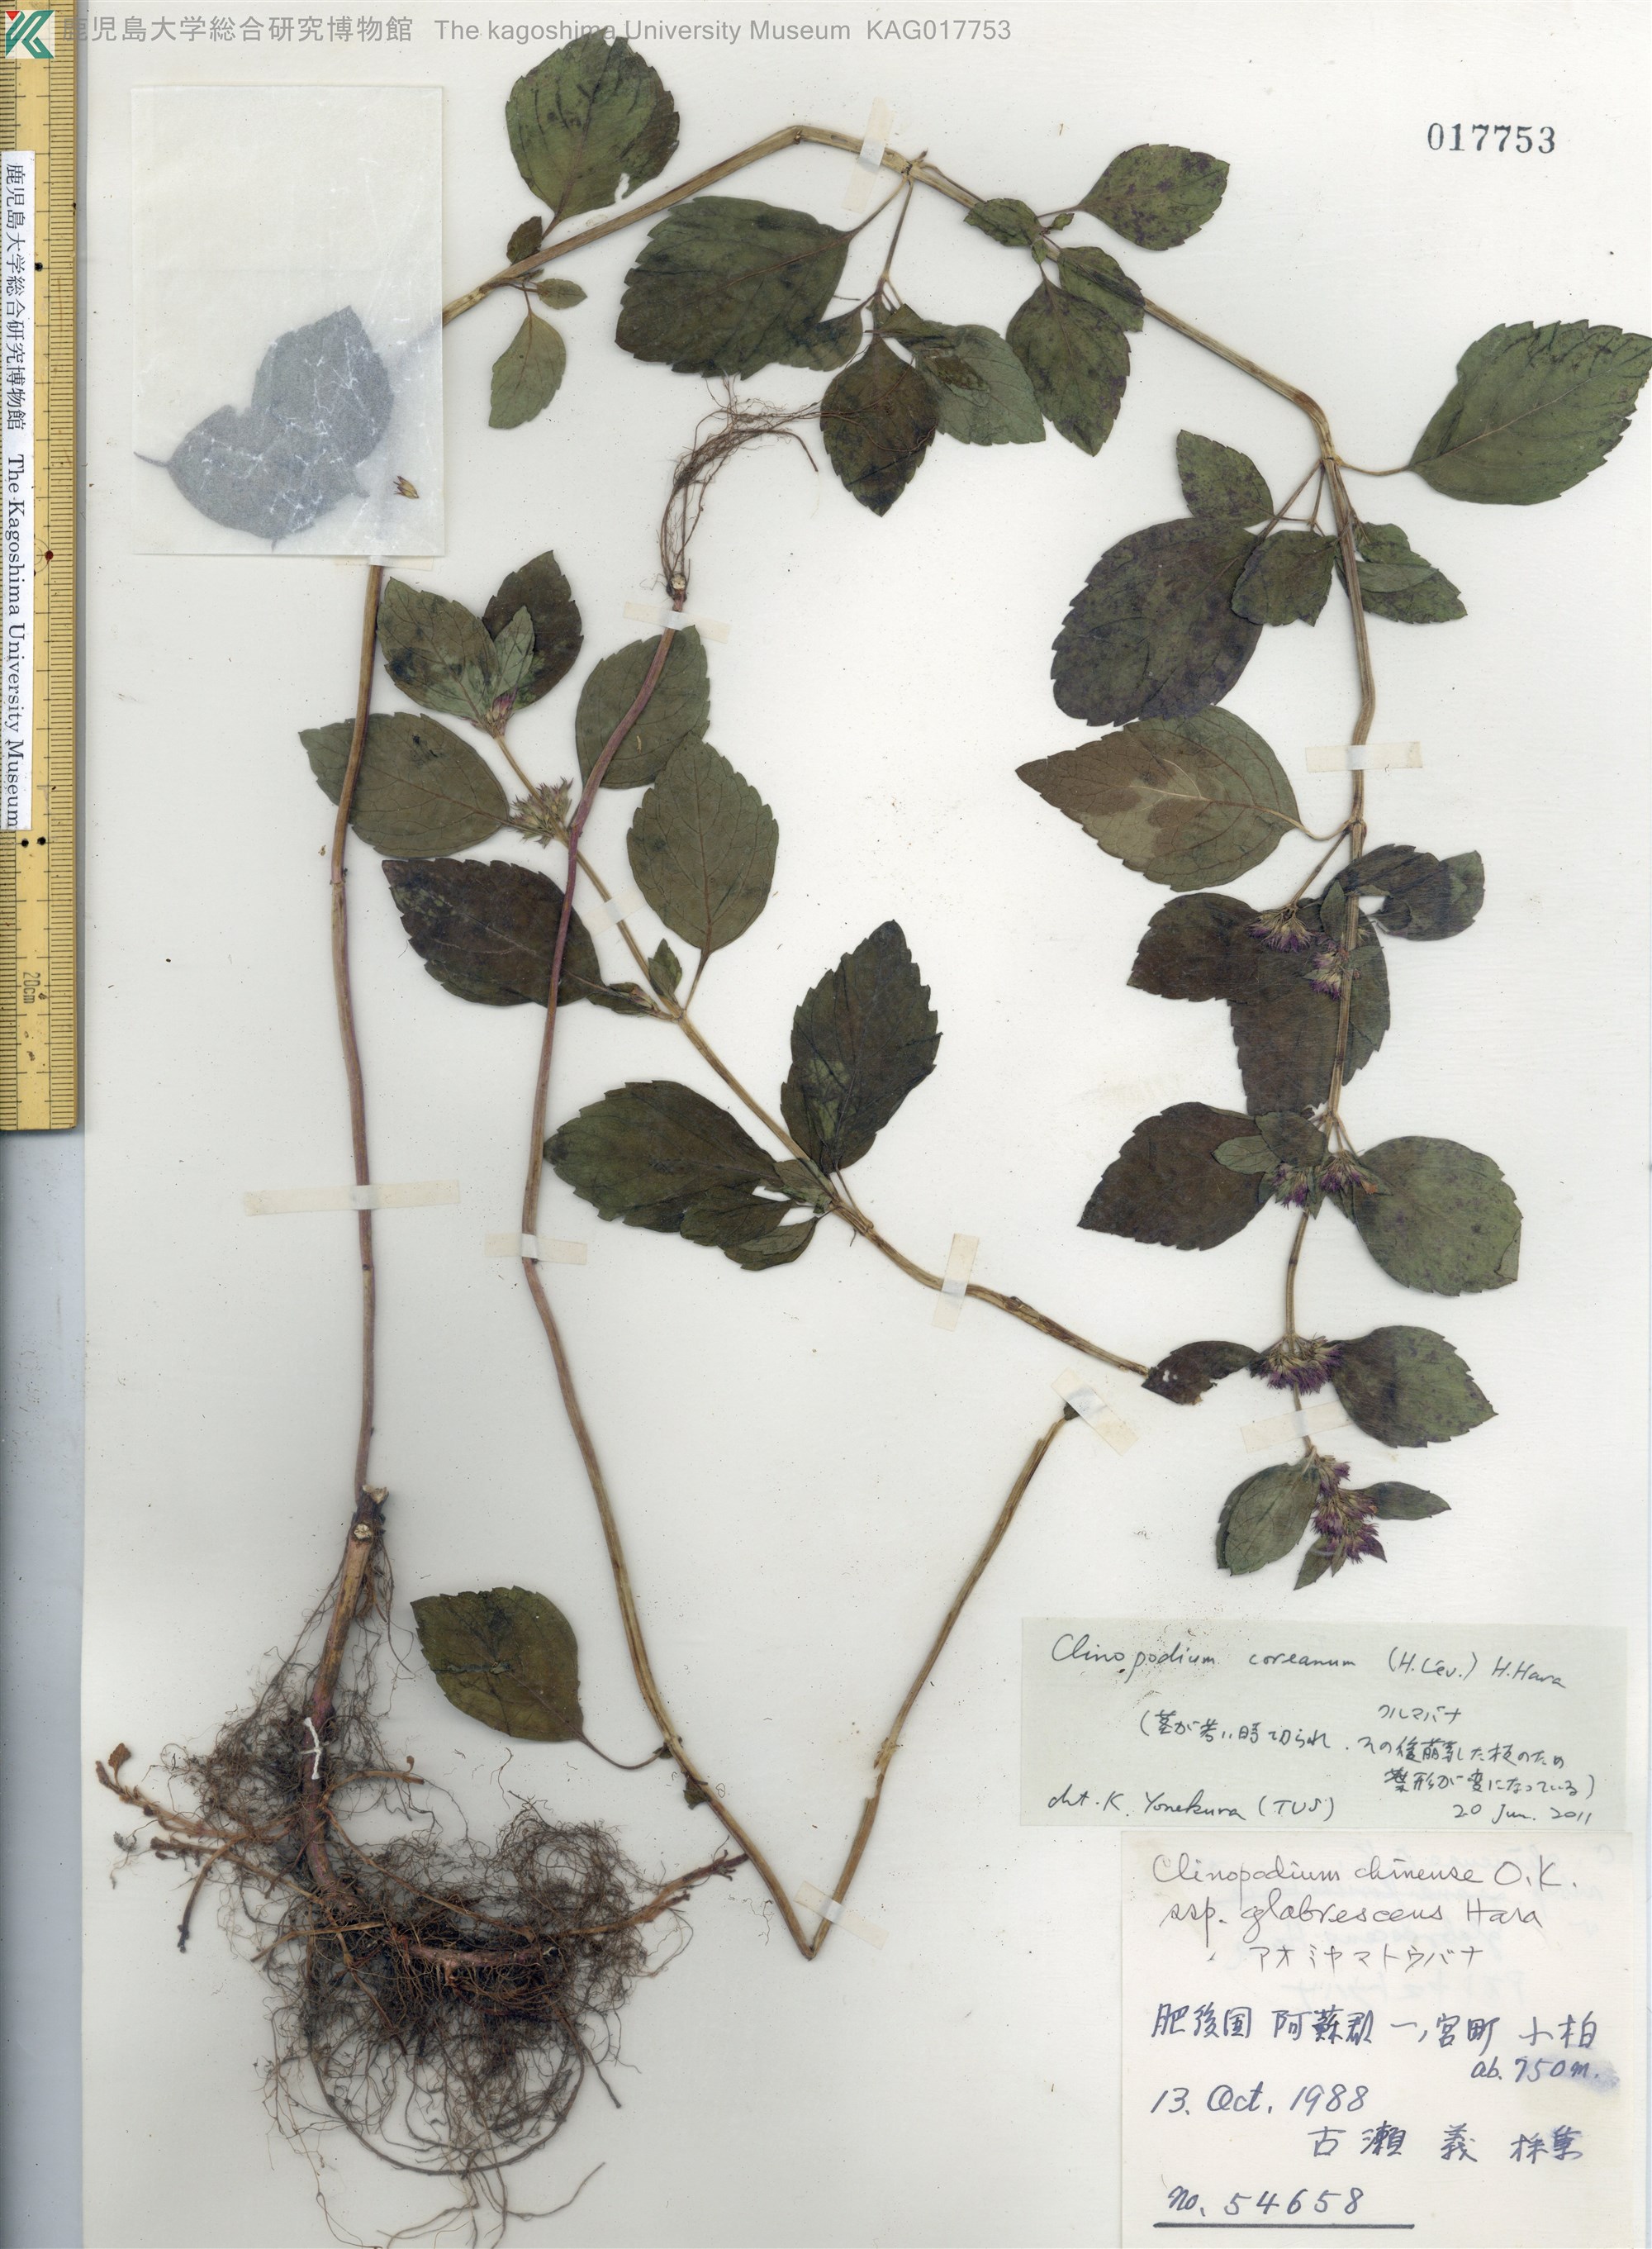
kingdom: Plantae
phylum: Tracheophyta
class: Magnoliopsida
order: Lamiales
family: Lamiaceae
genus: Clinopodium
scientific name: Clinopodium chinense
